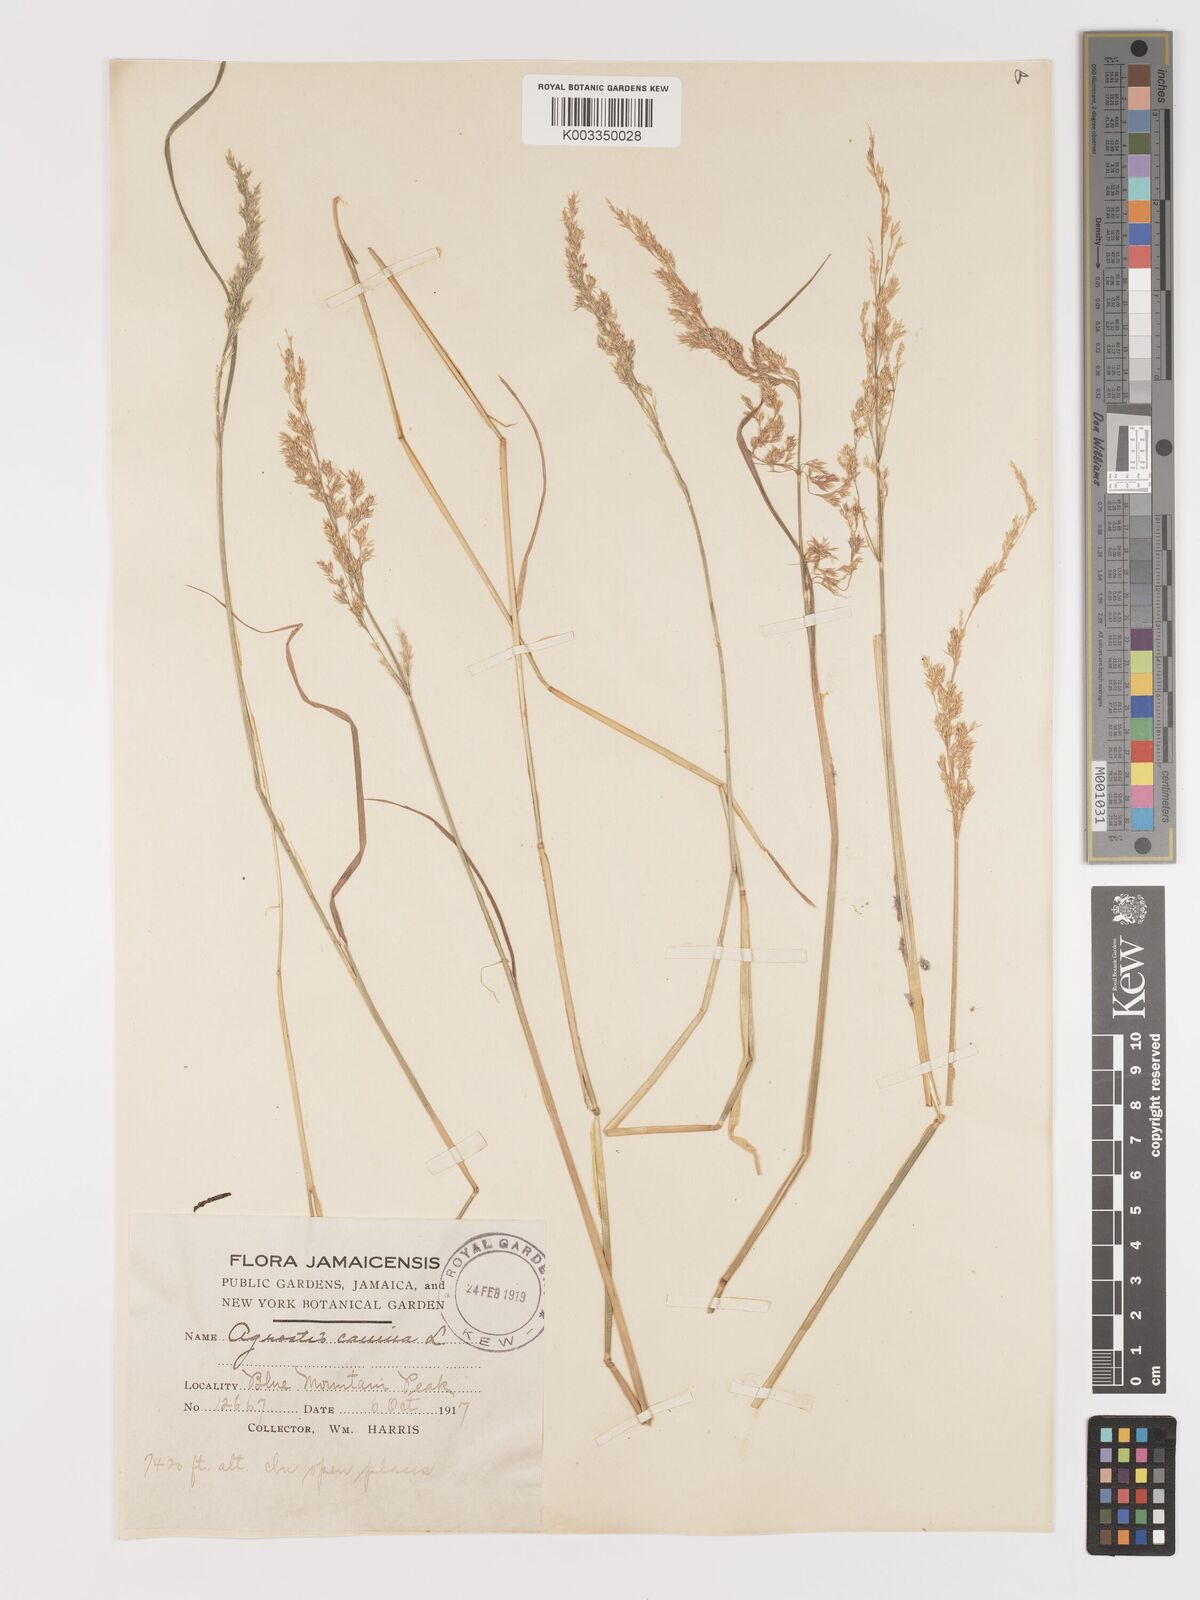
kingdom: Plantae
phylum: Tracheophyta
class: Liliopsida
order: Poales
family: Poaceae
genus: Agrostis
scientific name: Agrostis canina
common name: Velvet bent
